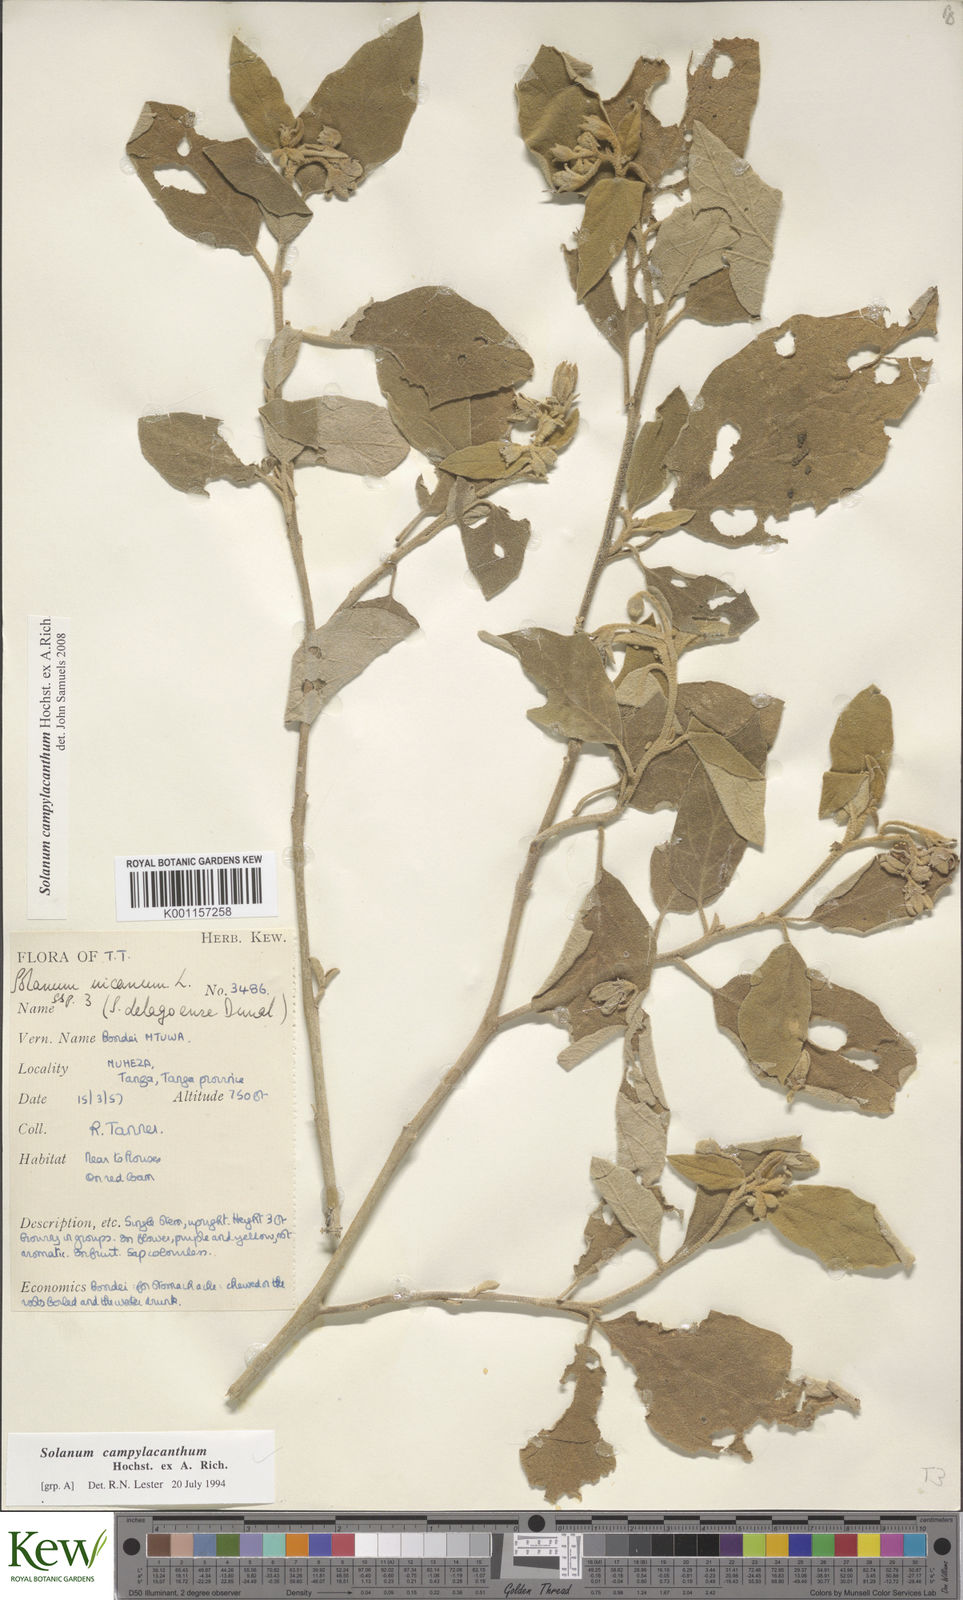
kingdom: Plantae
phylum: Tracheophyta
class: Magnoliopsida
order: Solanales
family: Solanaceae
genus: Solanum
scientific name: Solanum campylacanthum
